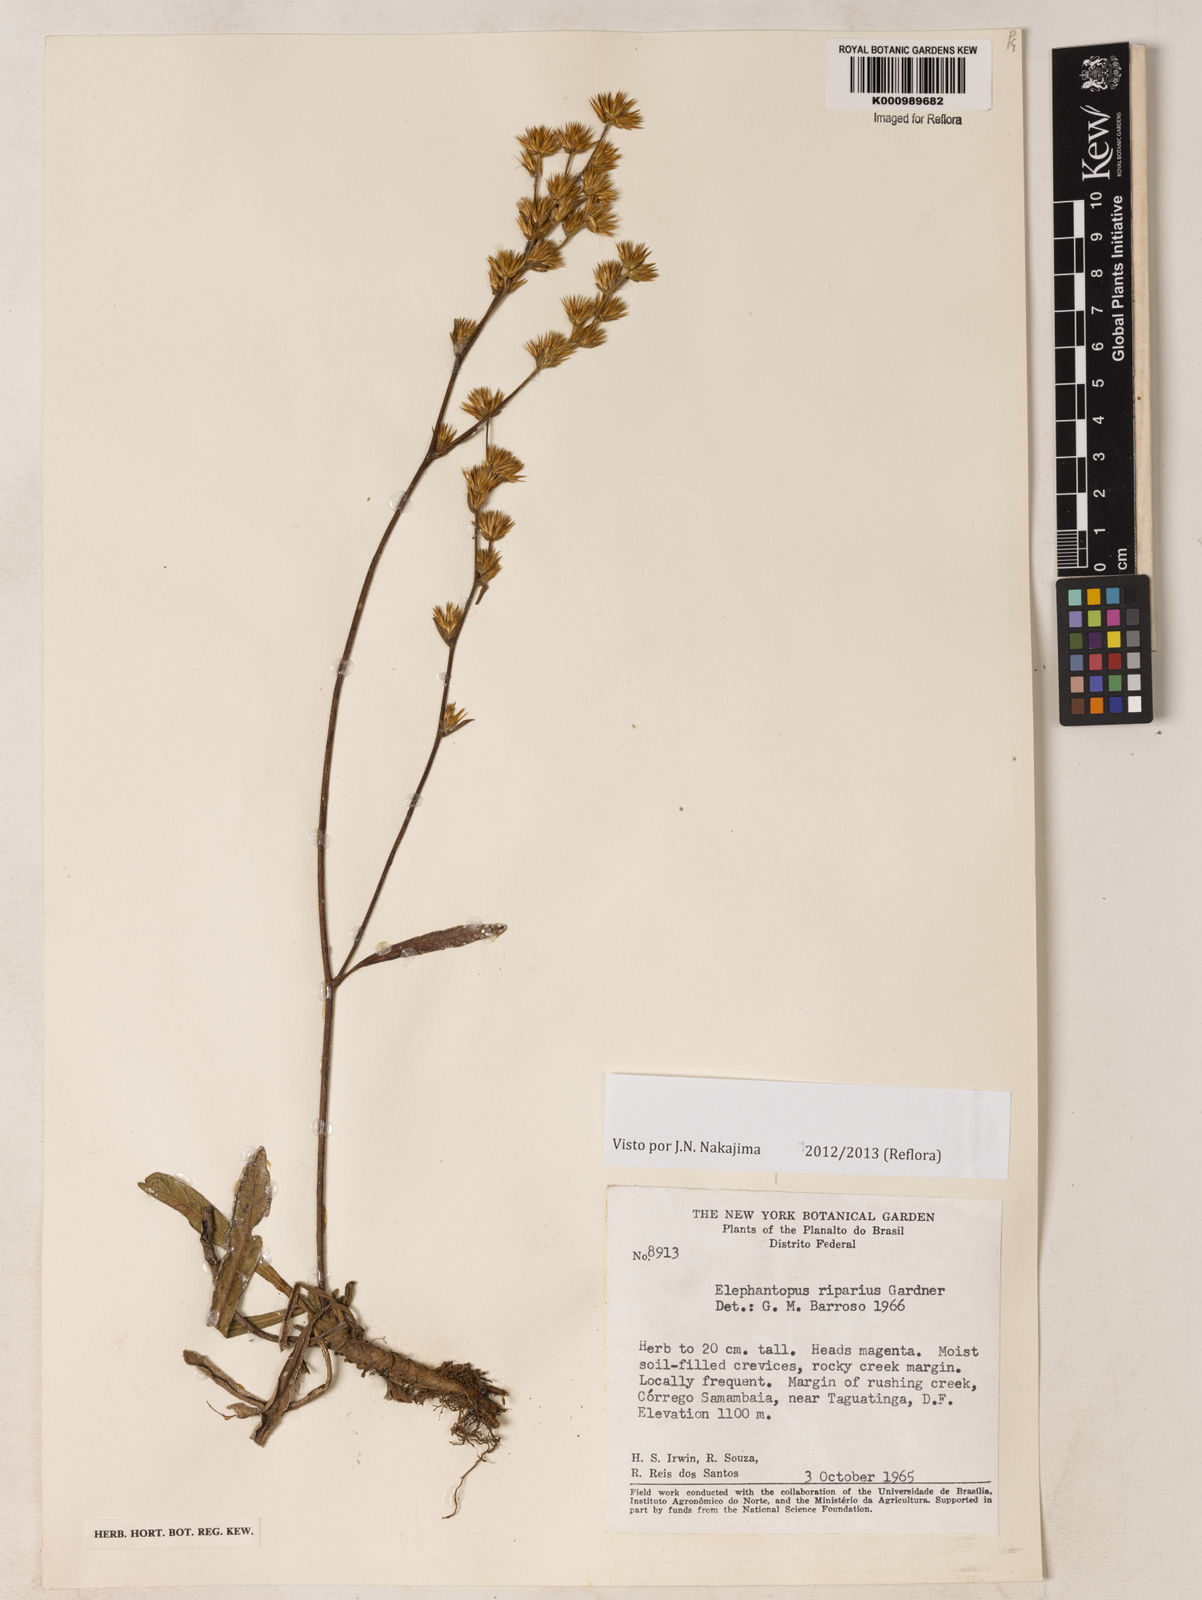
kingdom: Plantae
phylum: Tracheophyta
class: Magnoliopsida
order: Asterales
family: Asteraceae
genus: Elephantopus
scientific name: Elephantopus riparius
